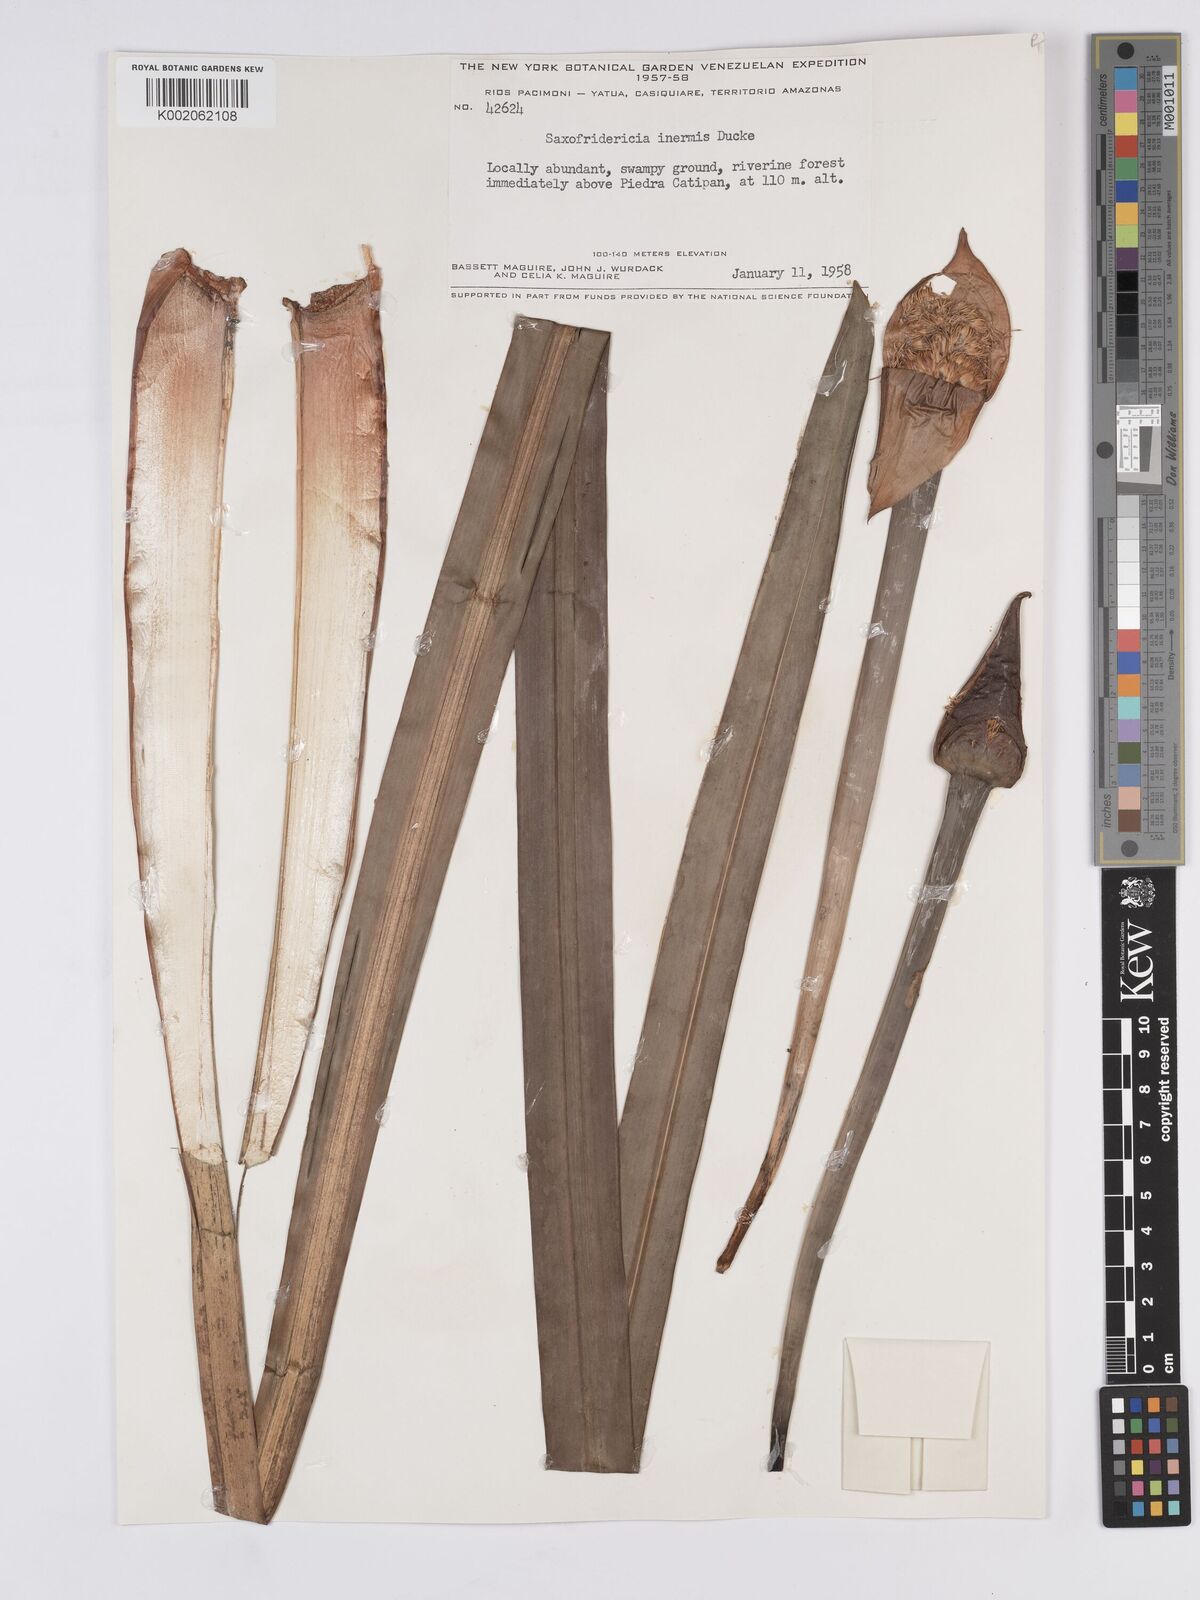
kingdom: Plantae
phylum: Tracheophyta
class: Liliopsida
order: Poales
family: Rapateaceae
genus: Saxofridericia
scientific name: Saxofridericia inermis
